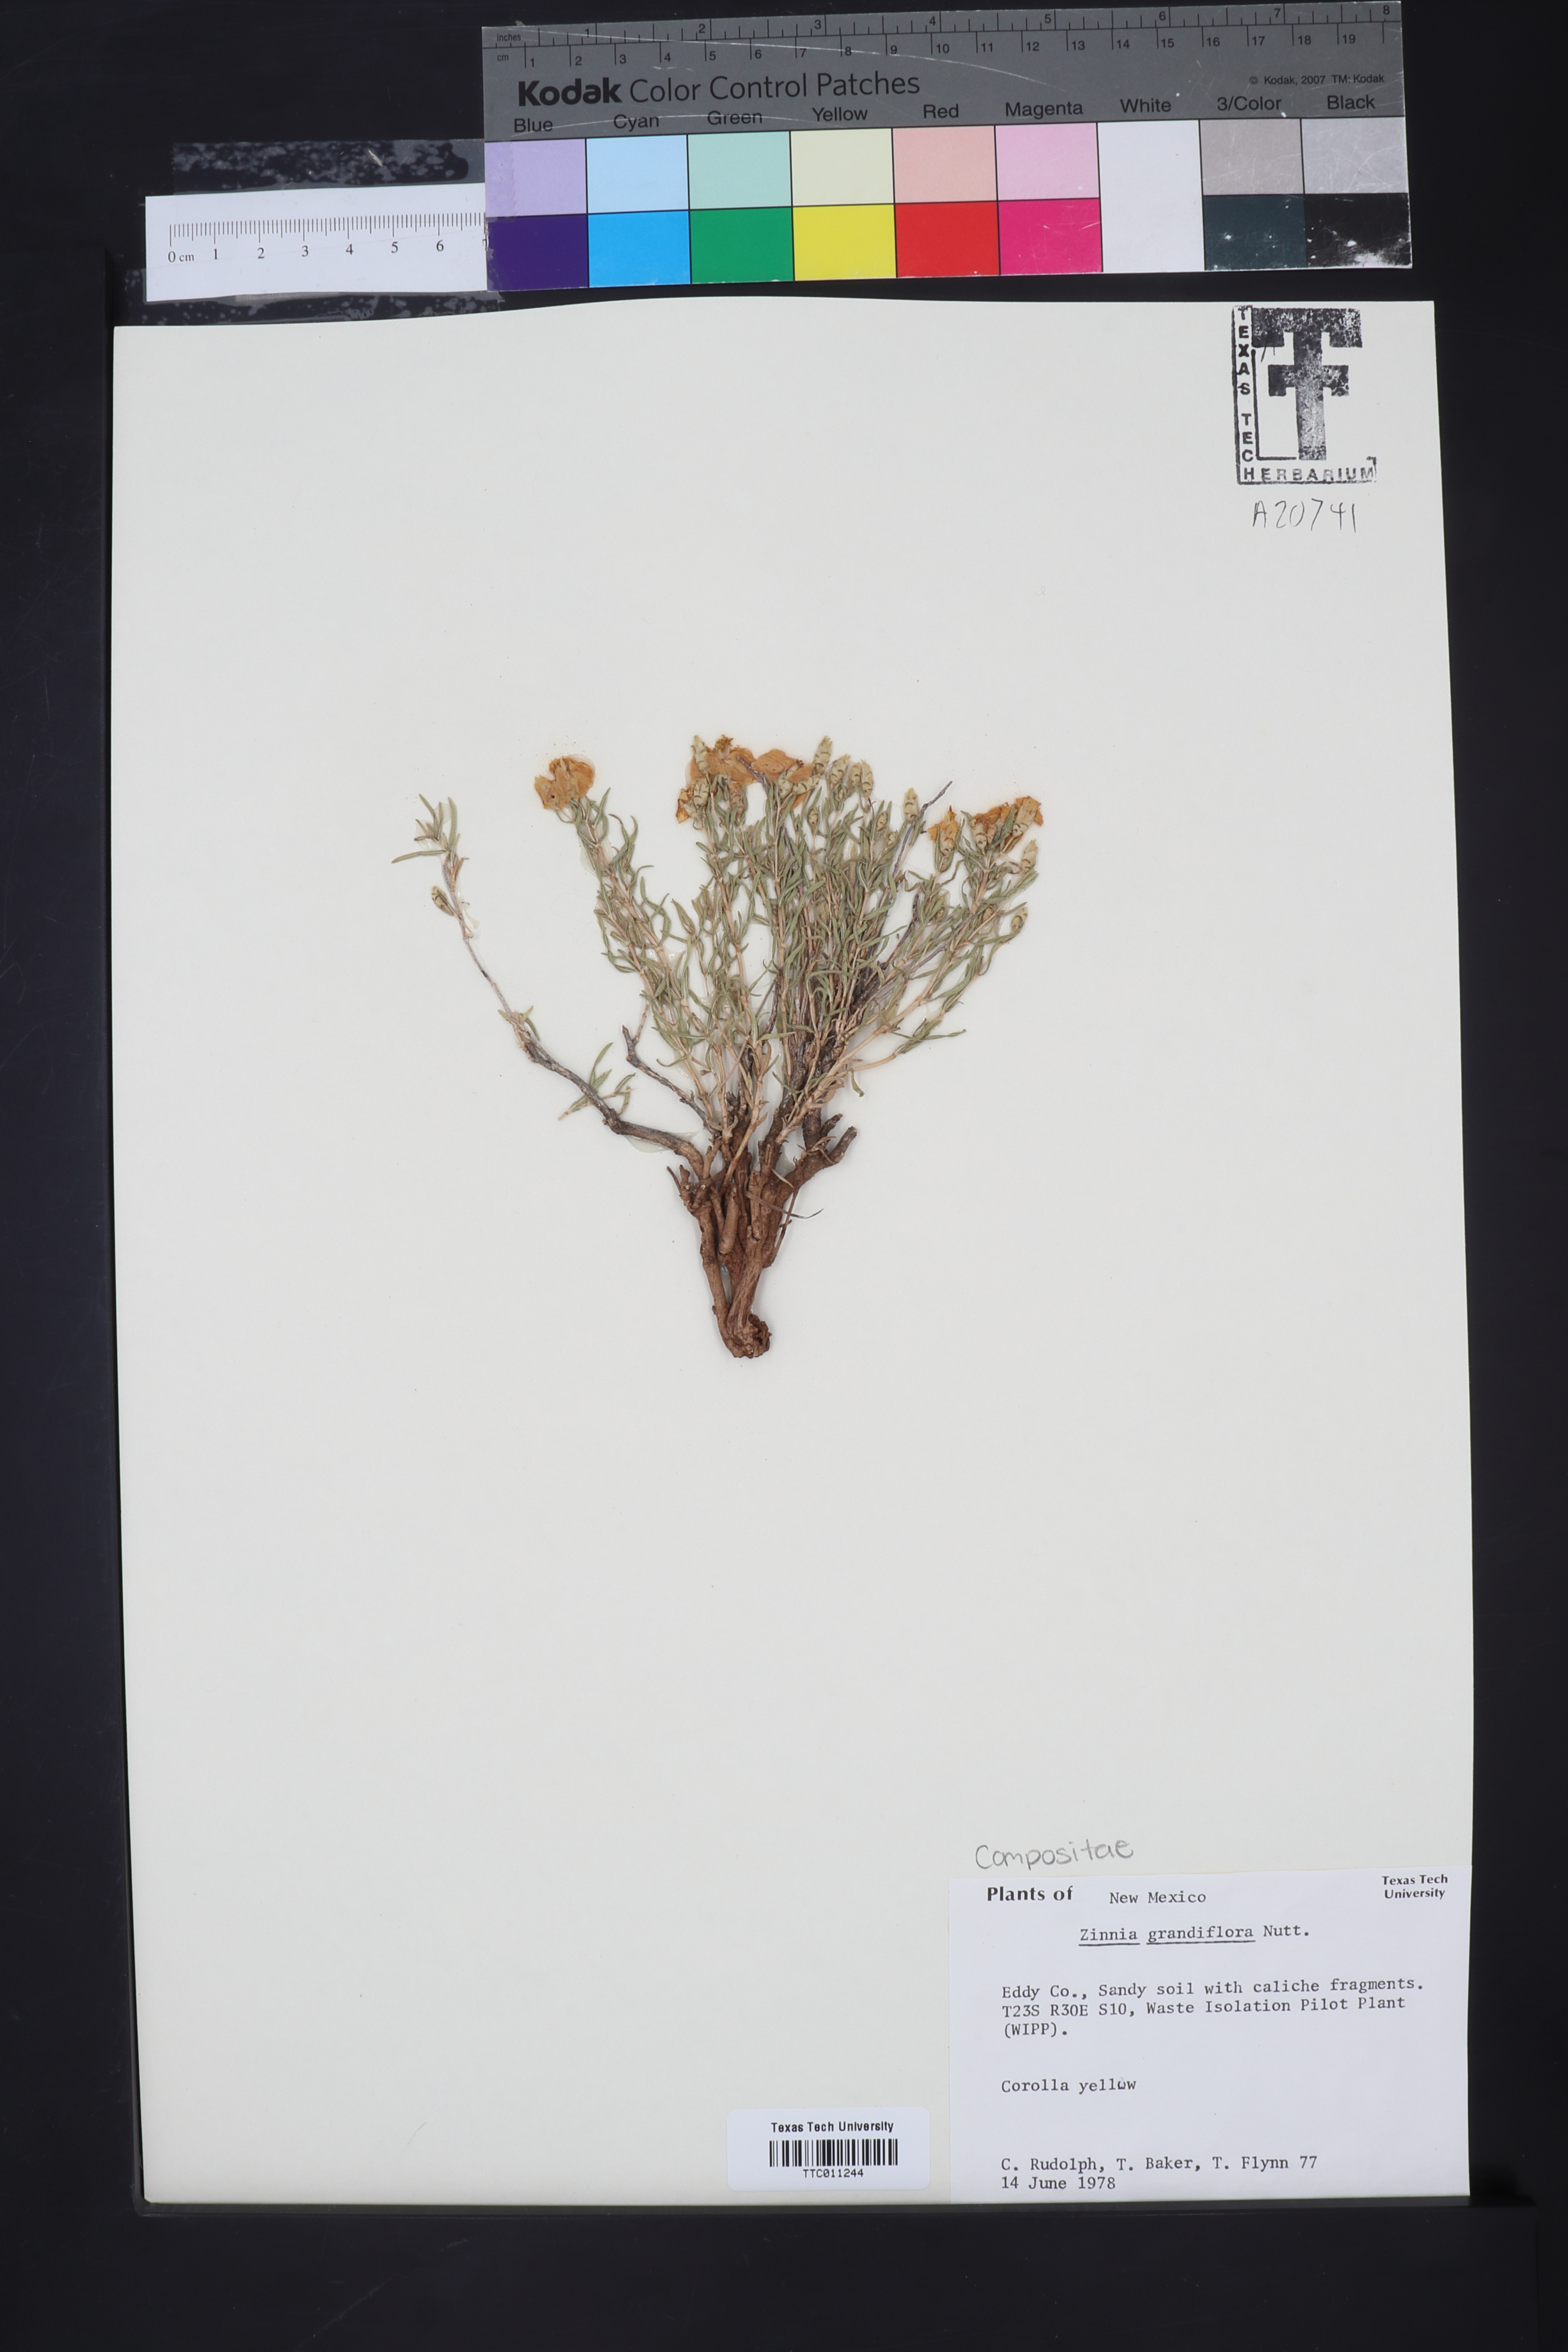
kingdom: Plantae
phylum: Tracheophyta
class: Magnoliopsida
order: Asterales
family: Asteraceae
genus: Zinnia
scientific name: Zinnia grandiflora
